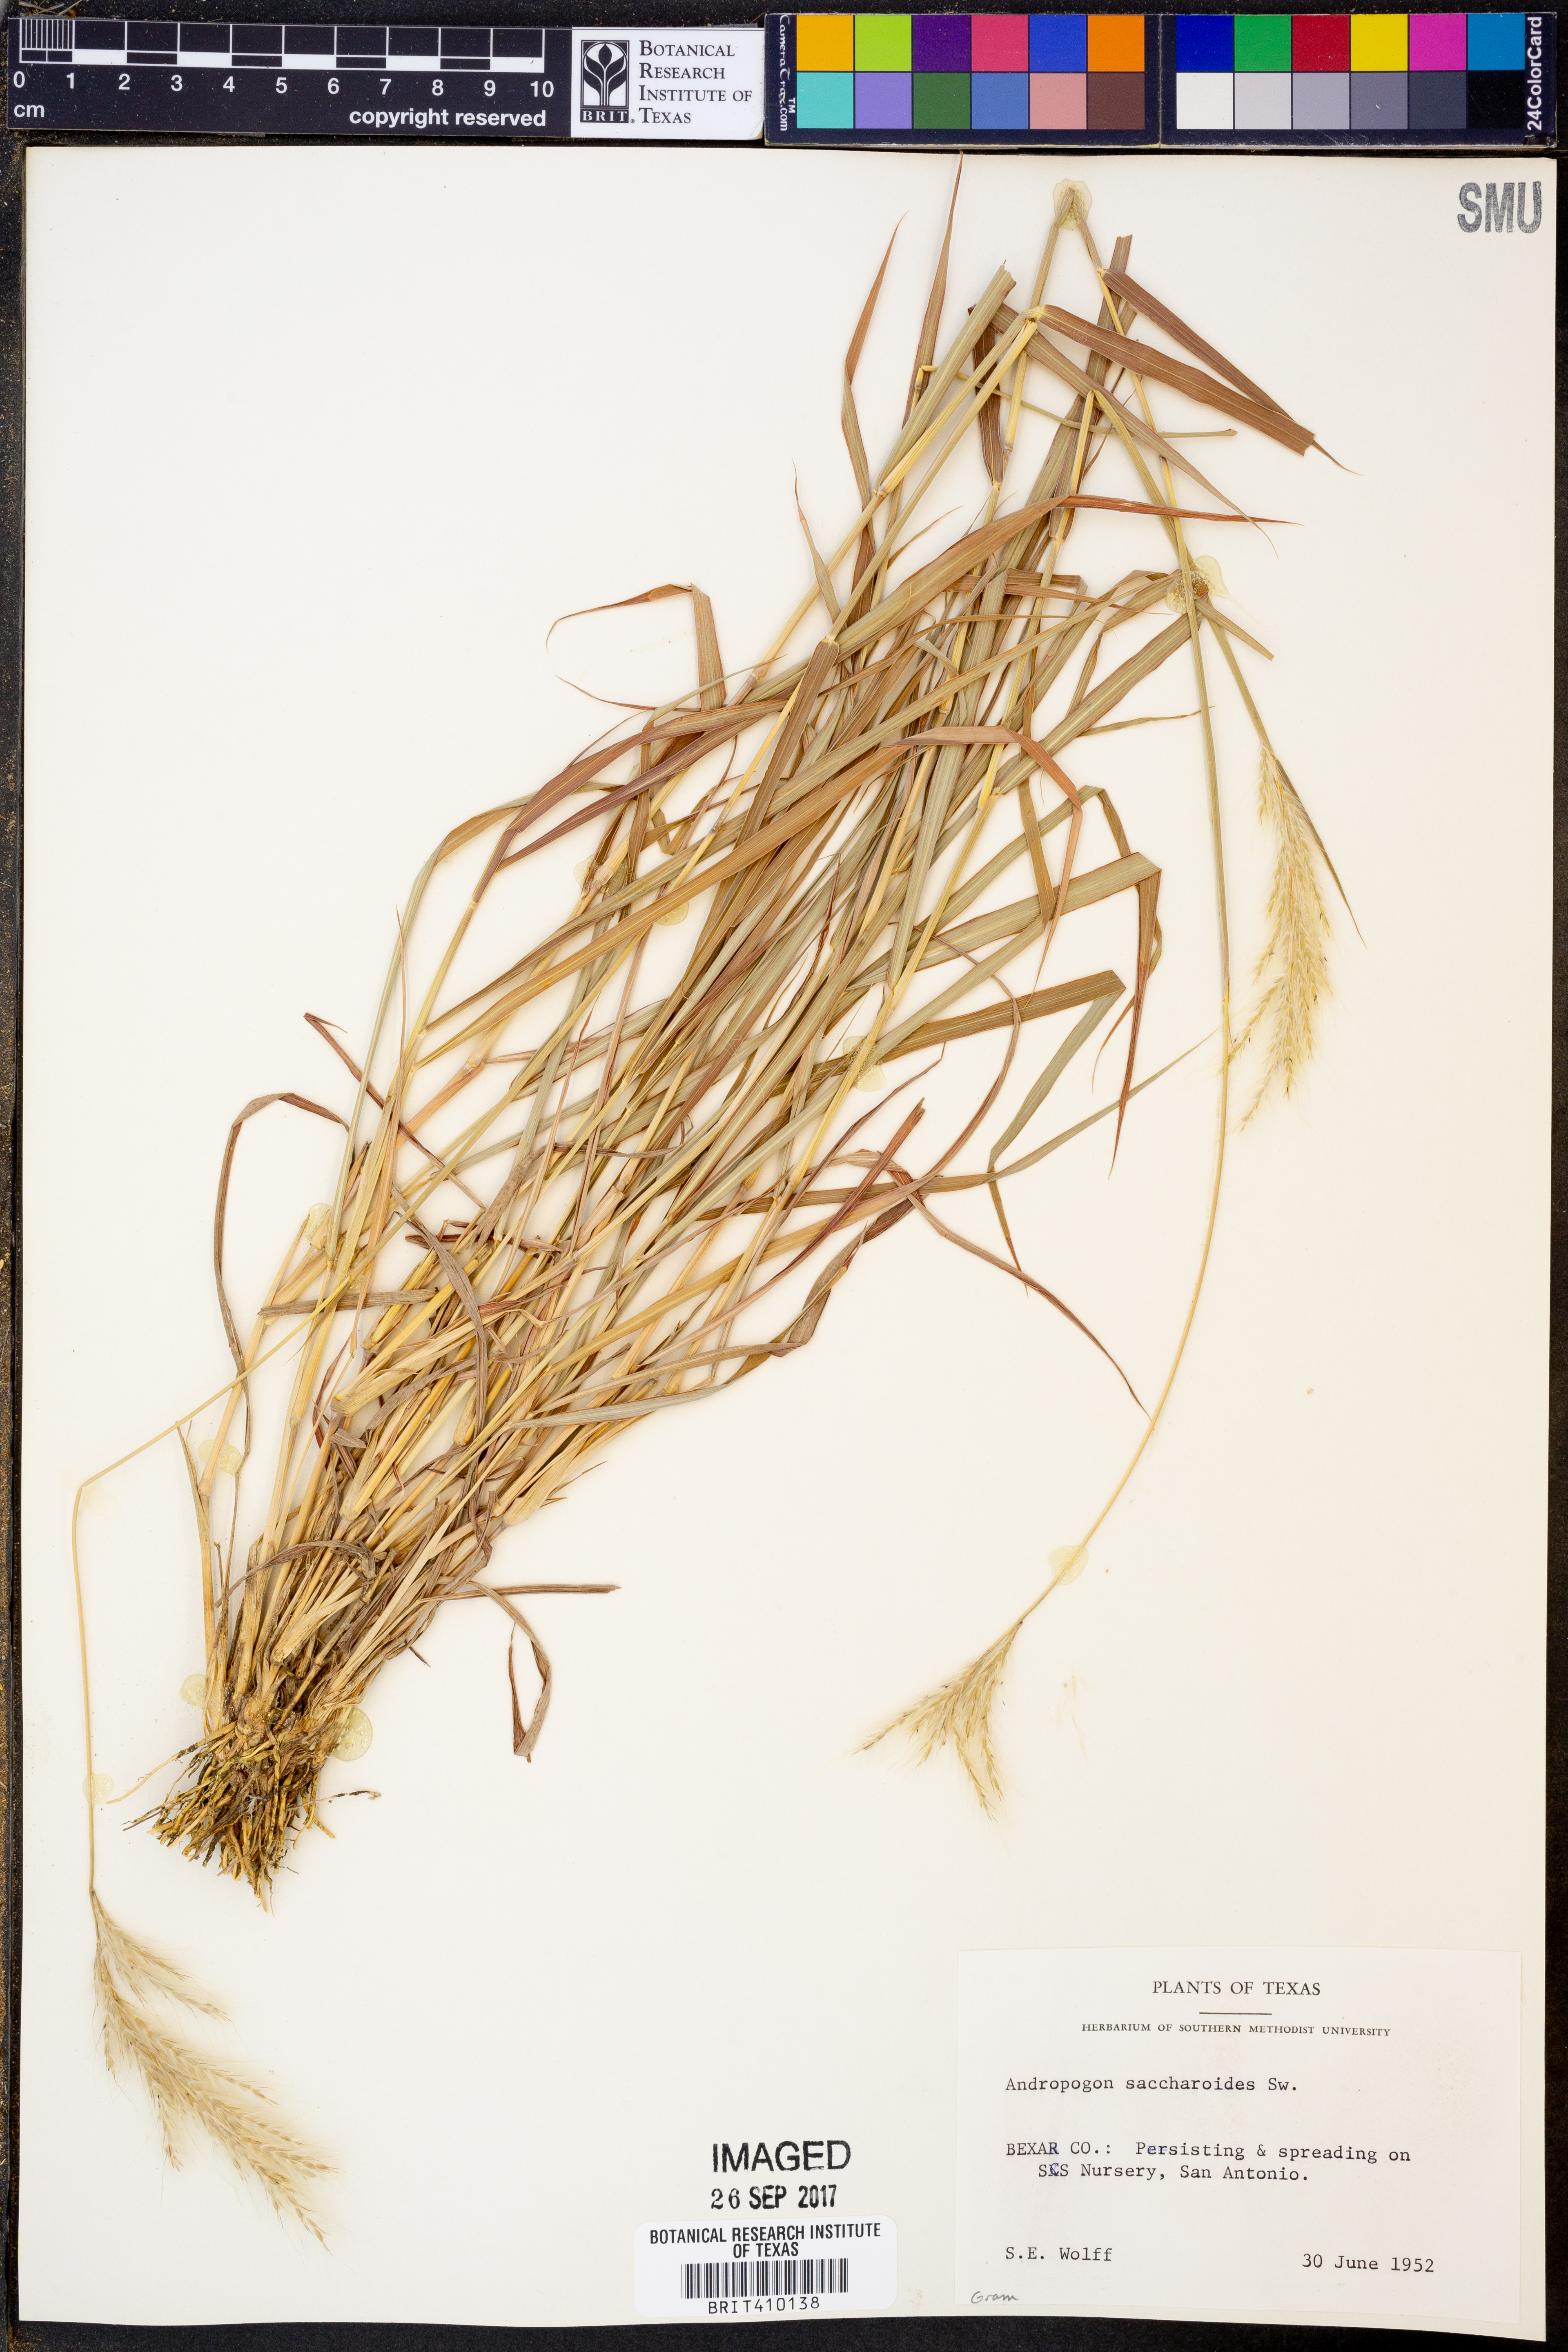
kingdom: Plantae
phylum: Tracheophyta
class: Liliopsida
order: Poales
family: Poaceae
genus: Bothriochloa
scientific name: Bothriochloa saccharoides
